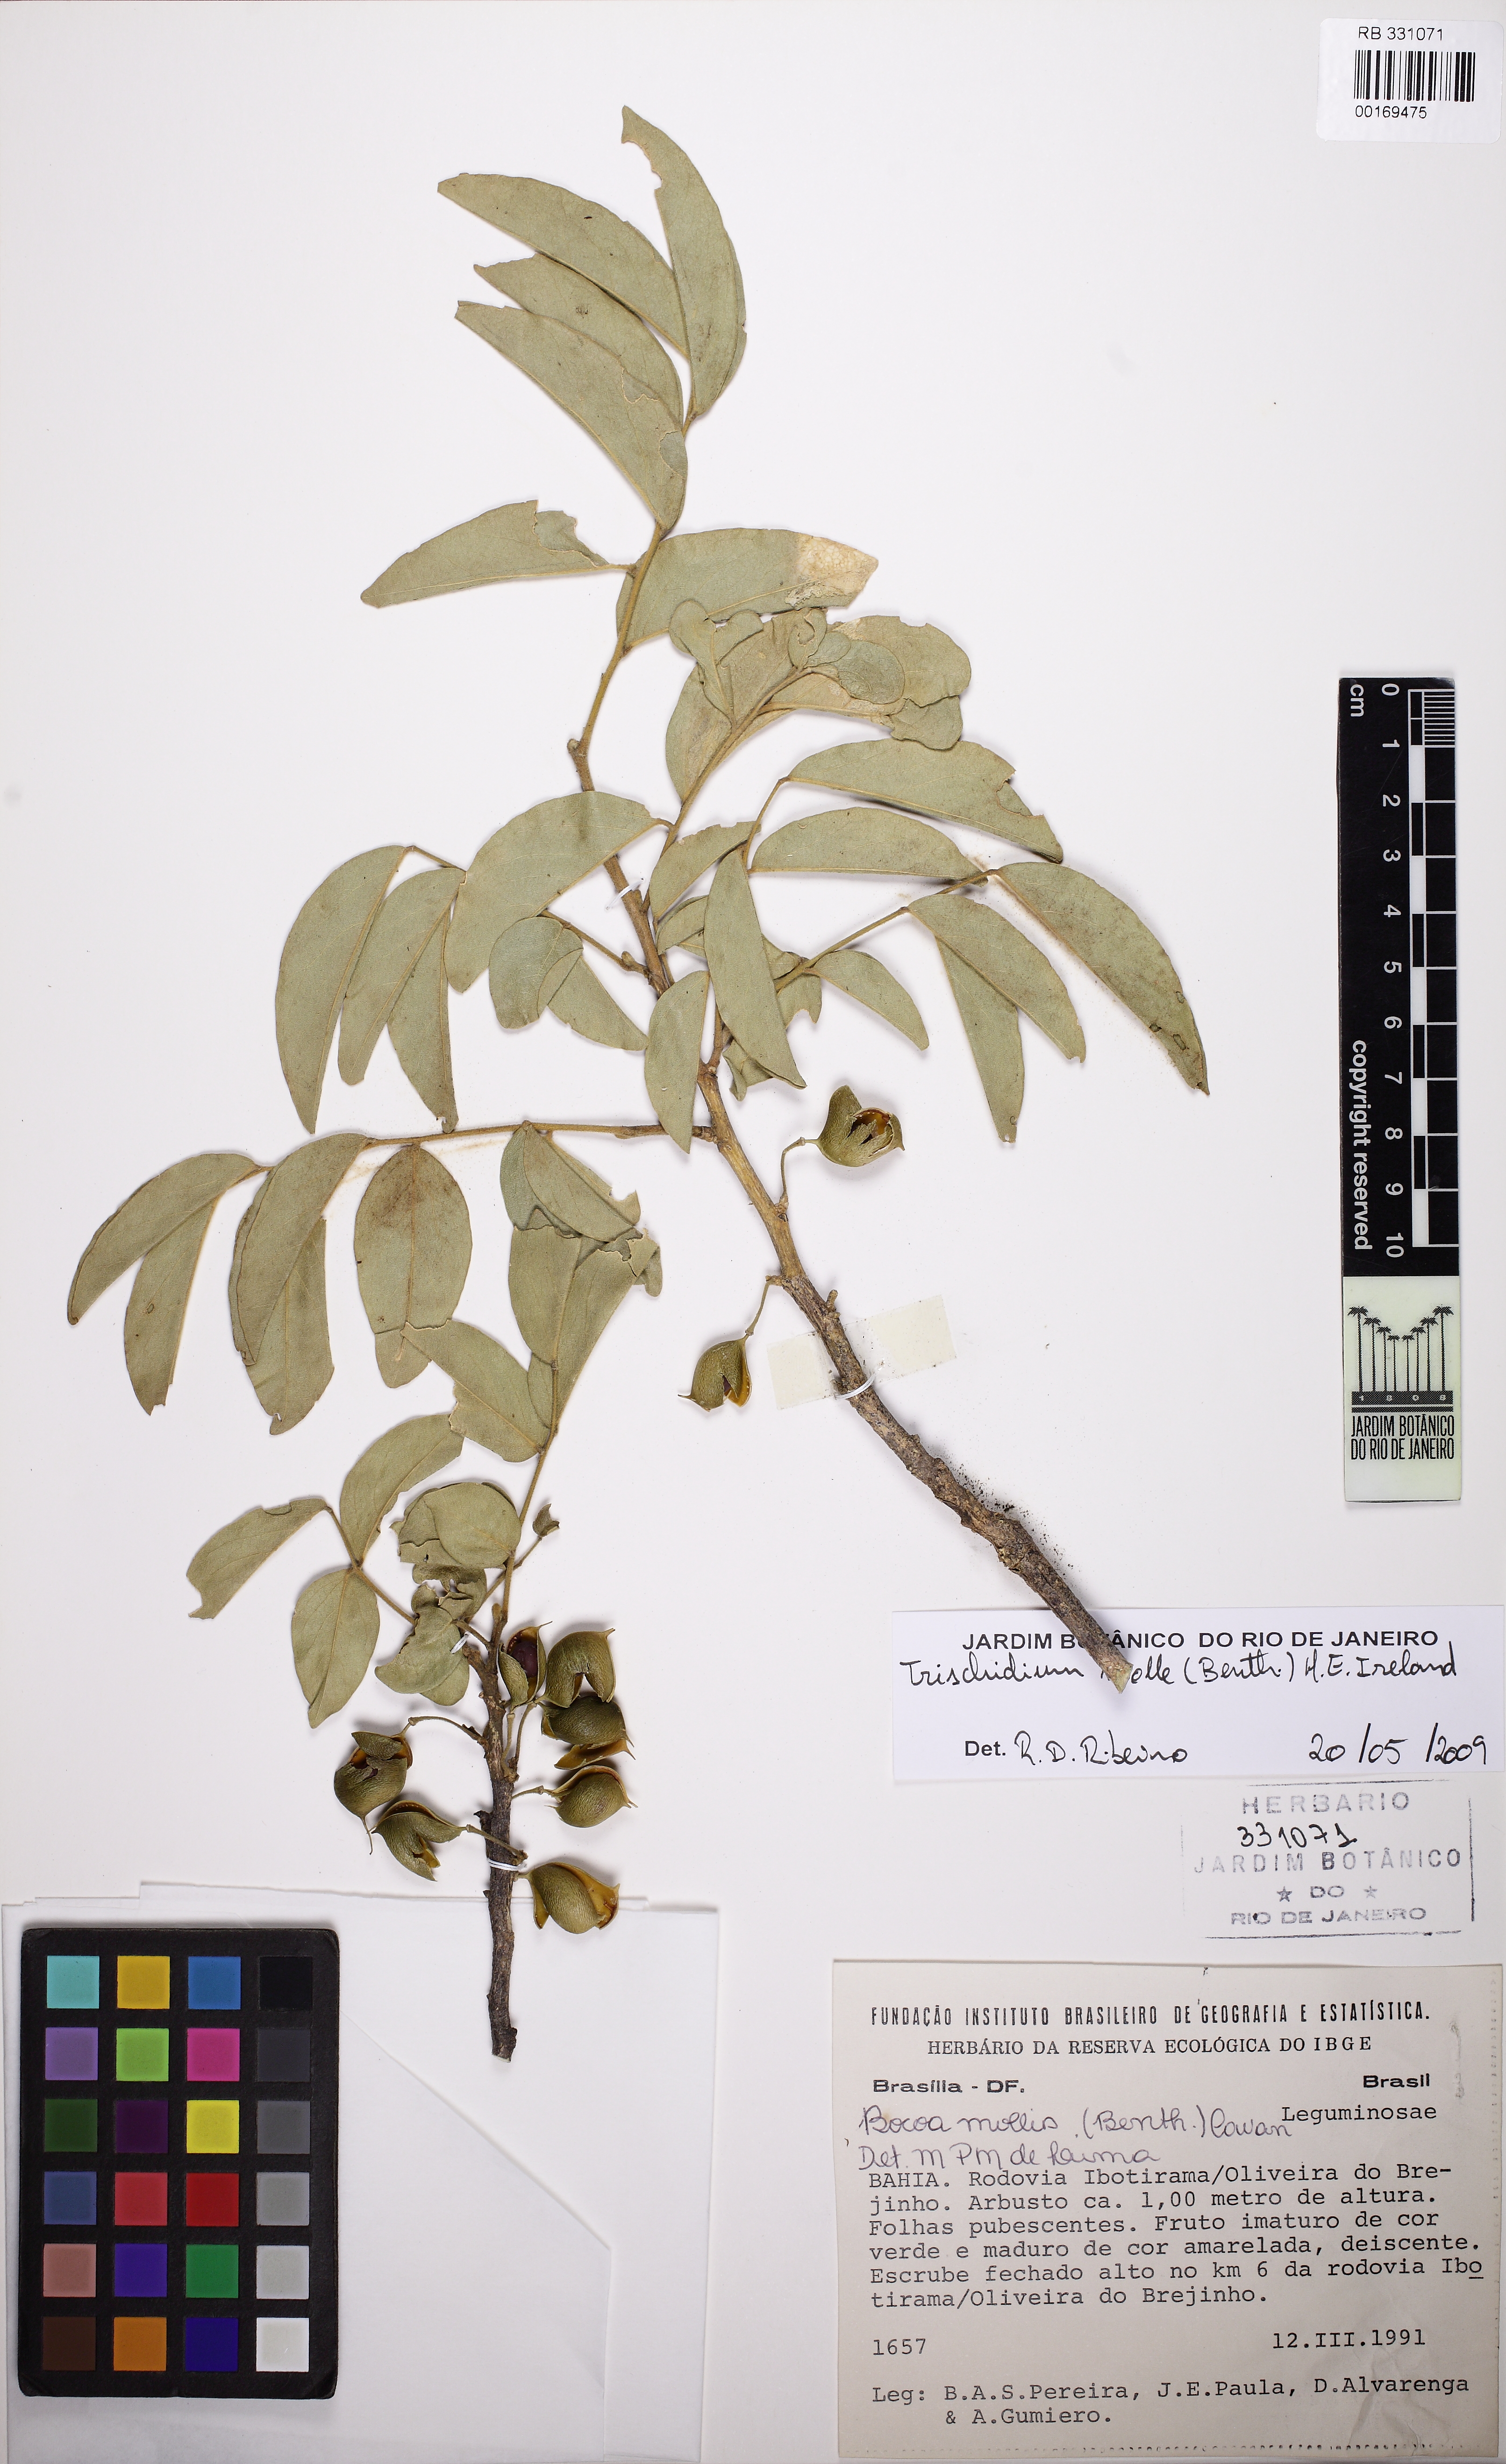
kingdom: Plantae
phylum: Tracheophyta
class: Magnoliopsida
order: Fabales
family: Fabaceae
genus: Trischidium
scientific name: Trischidium molle
